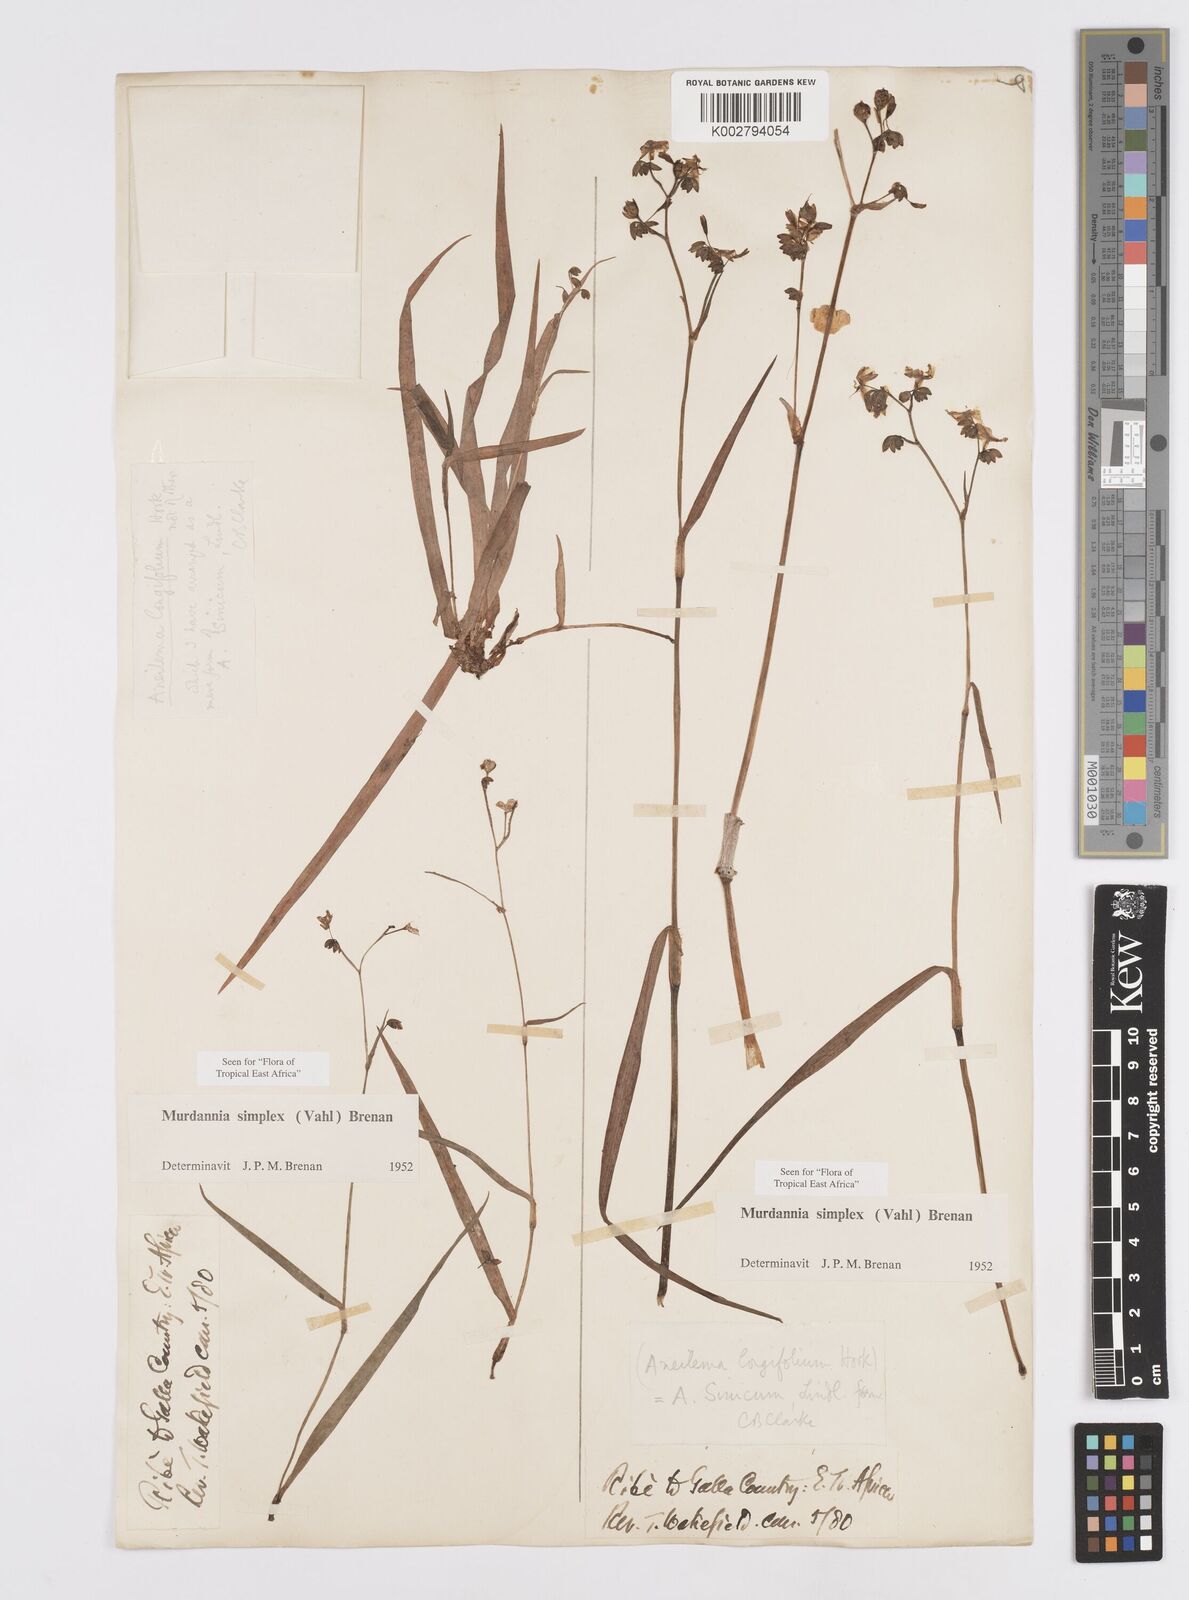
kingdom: Plantae
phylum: Tracheophyta
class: Liliopsida
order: Commelinales
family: Commelinaceae
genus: Murdannia
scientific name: Murdannia simplex
